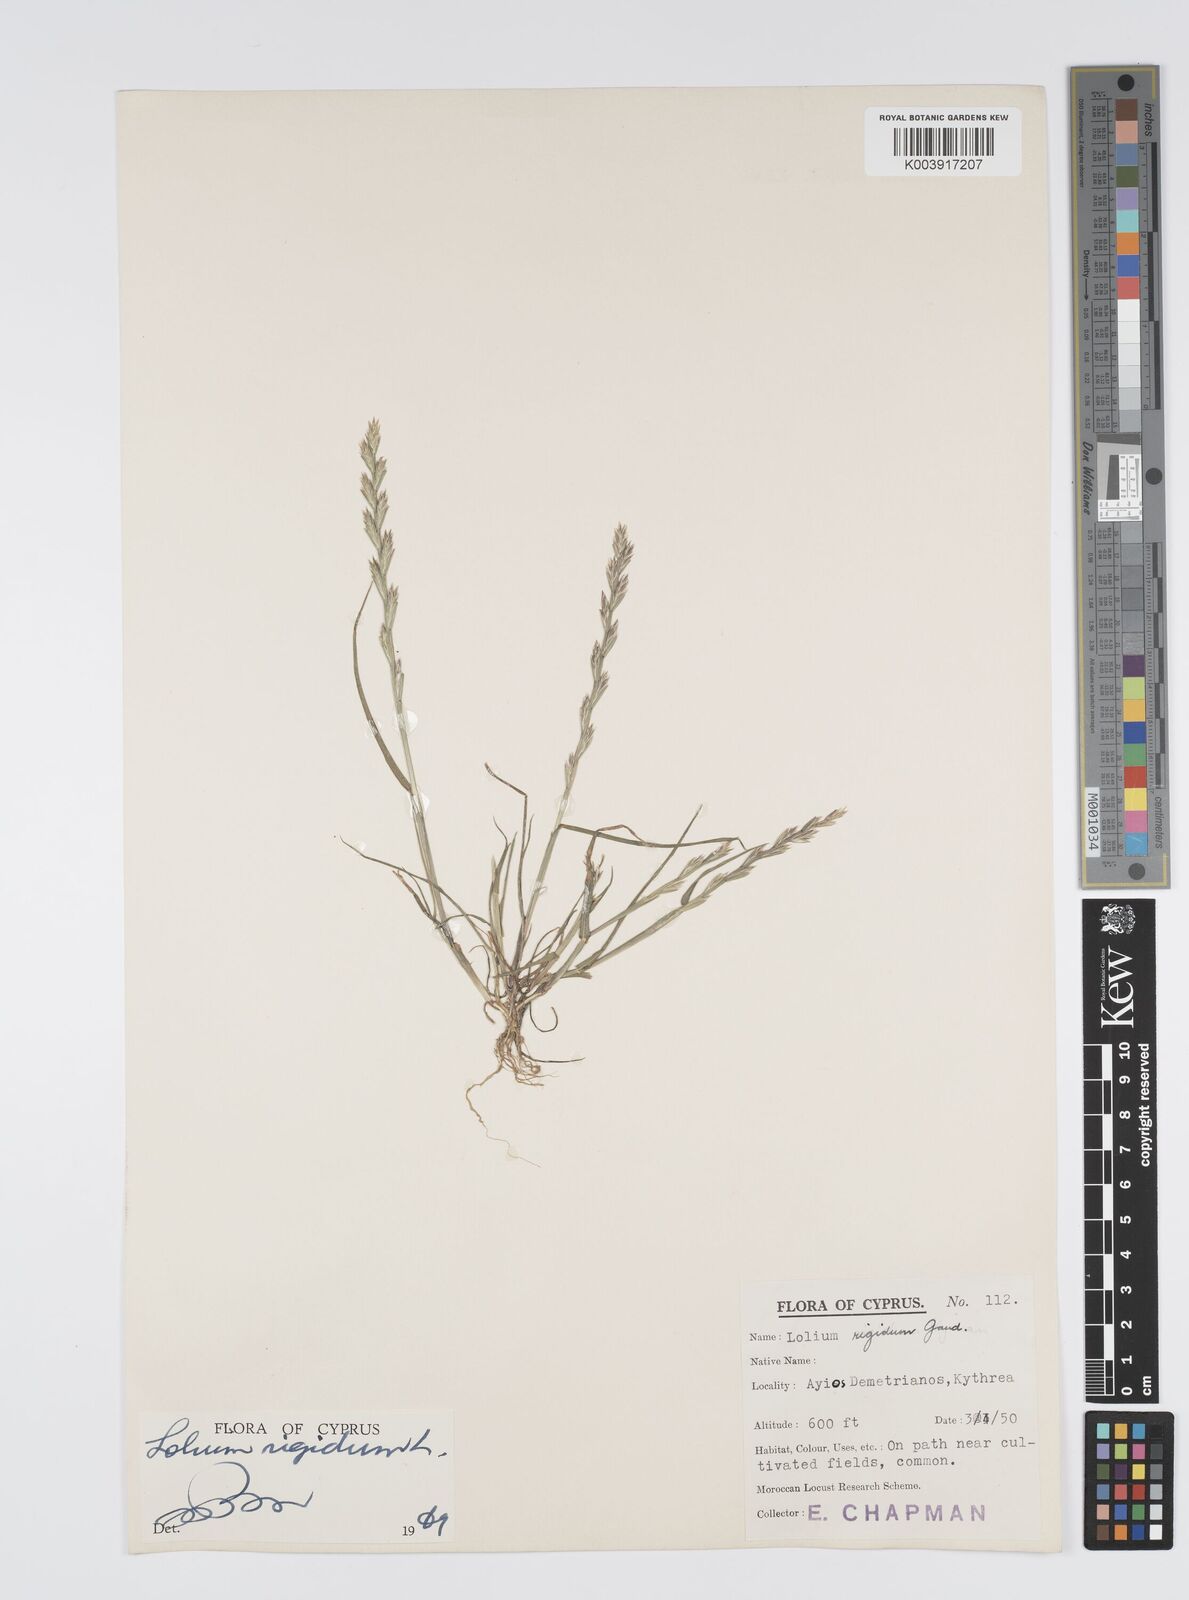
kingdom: Plantae
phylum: Tracheophyta
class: Liliopsida
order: Poales
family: Poaceae
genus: Lolium
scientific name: Lolium rigidum
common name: Wimmera ryegrass
